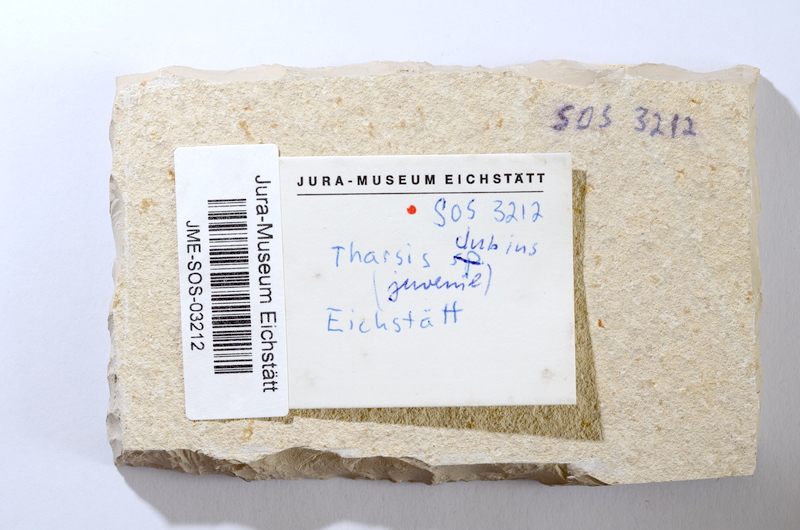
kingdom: Animalia
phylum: Chordata
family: Ascalaboidae
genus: Tharsis
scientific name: Tharsis dubius
